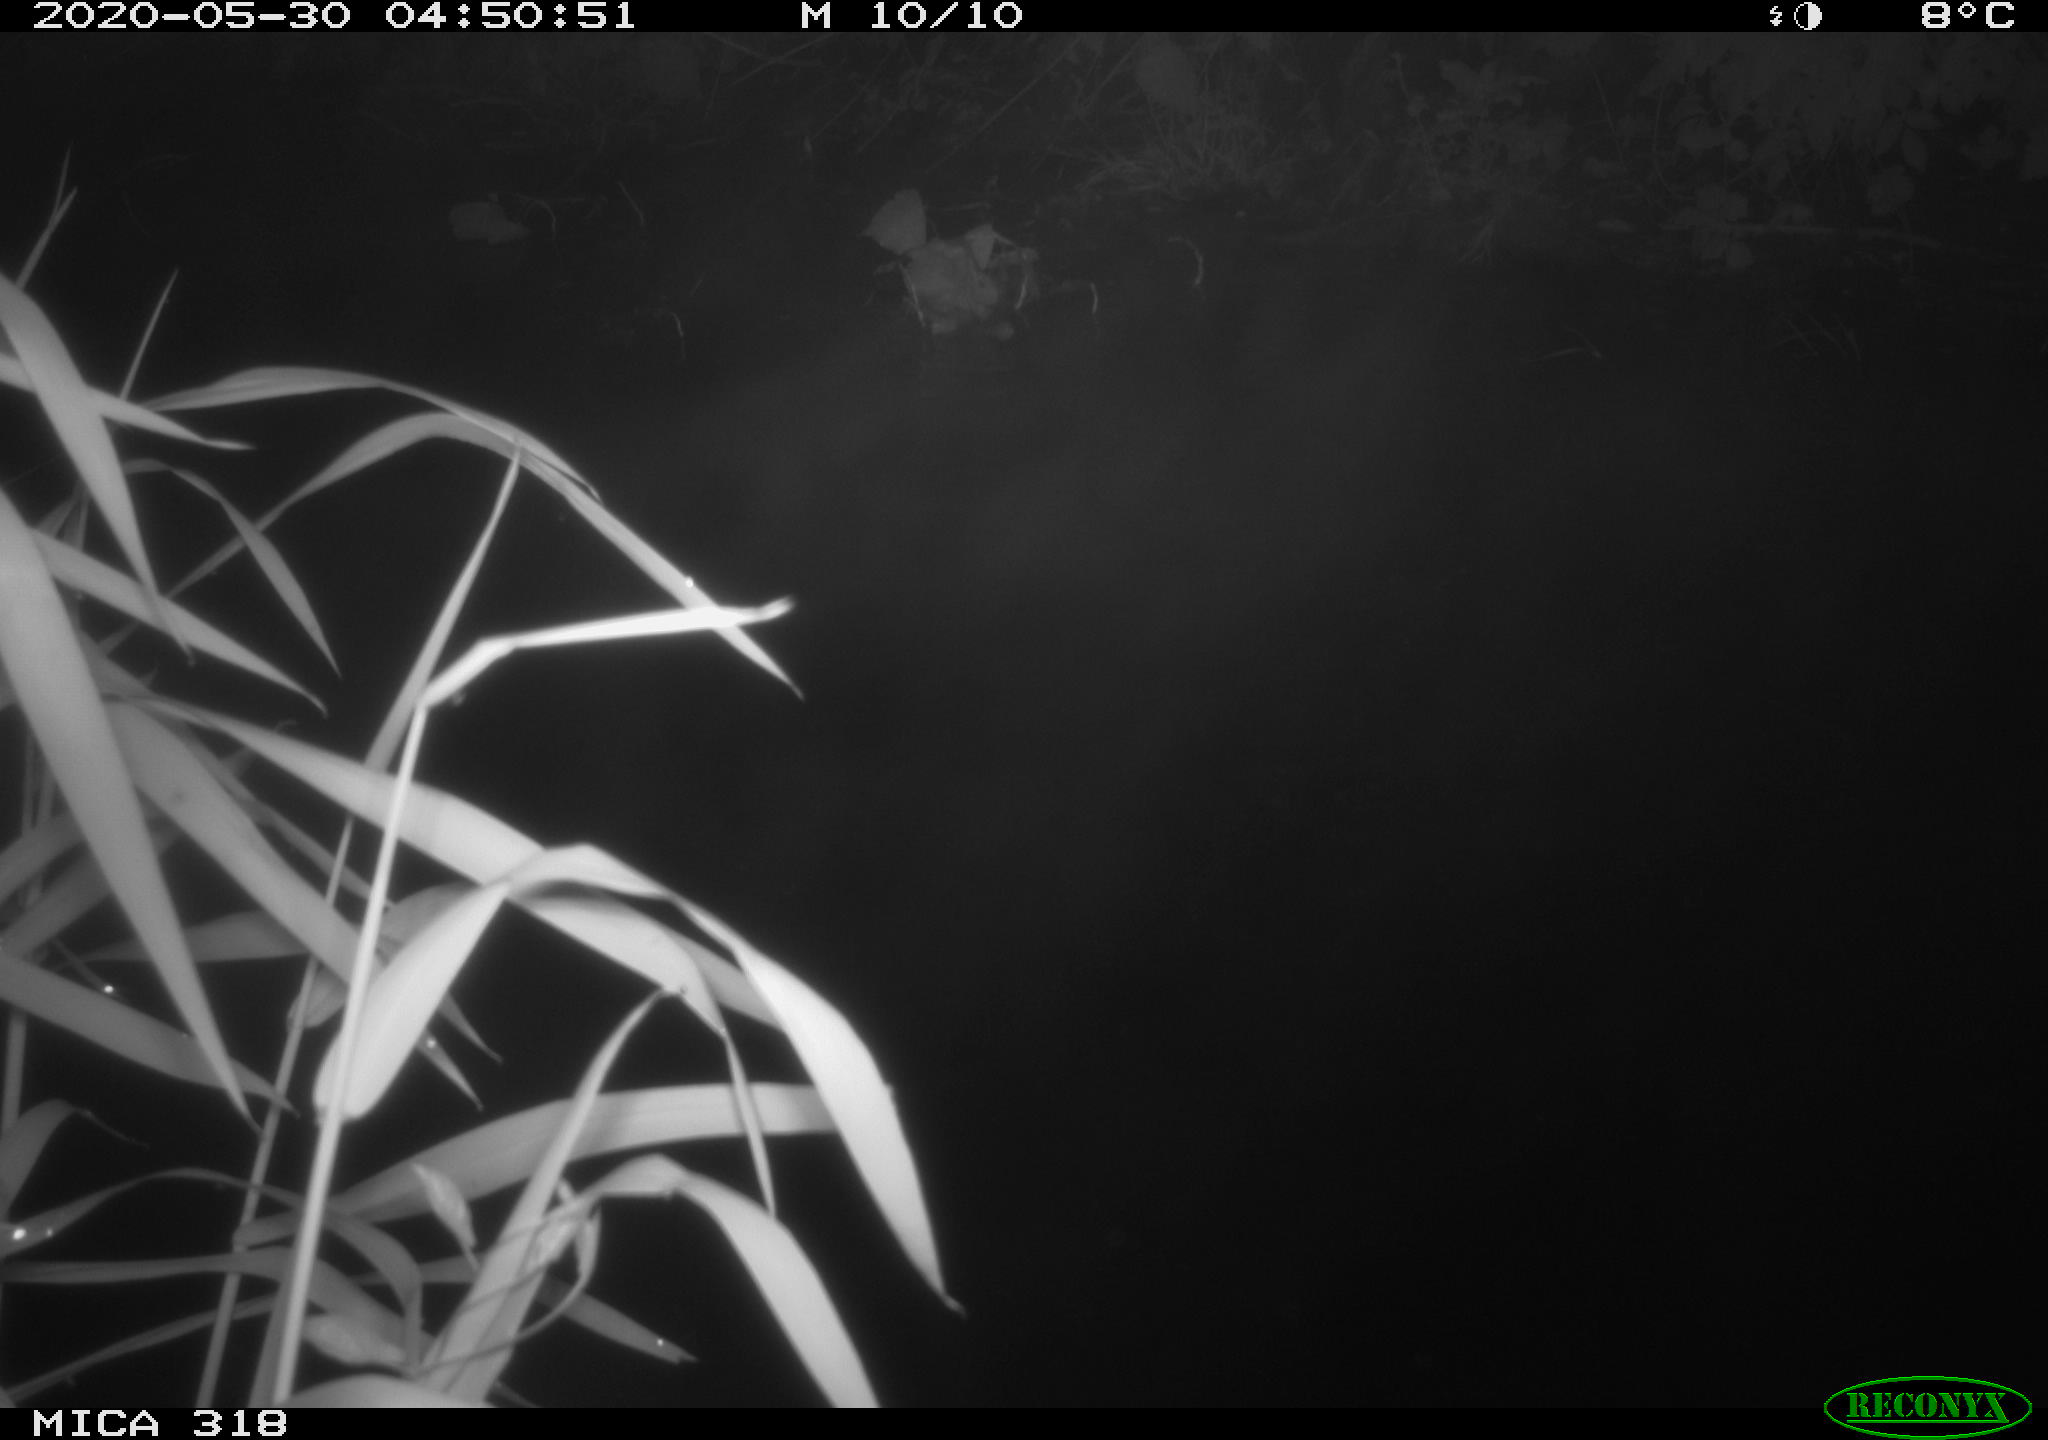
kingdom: Animalia
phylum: Chordata
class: Aves
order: Gruiformes
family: Rallidae
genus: Gallinula
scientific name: Gallinula chloropus
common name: Common moorhen
